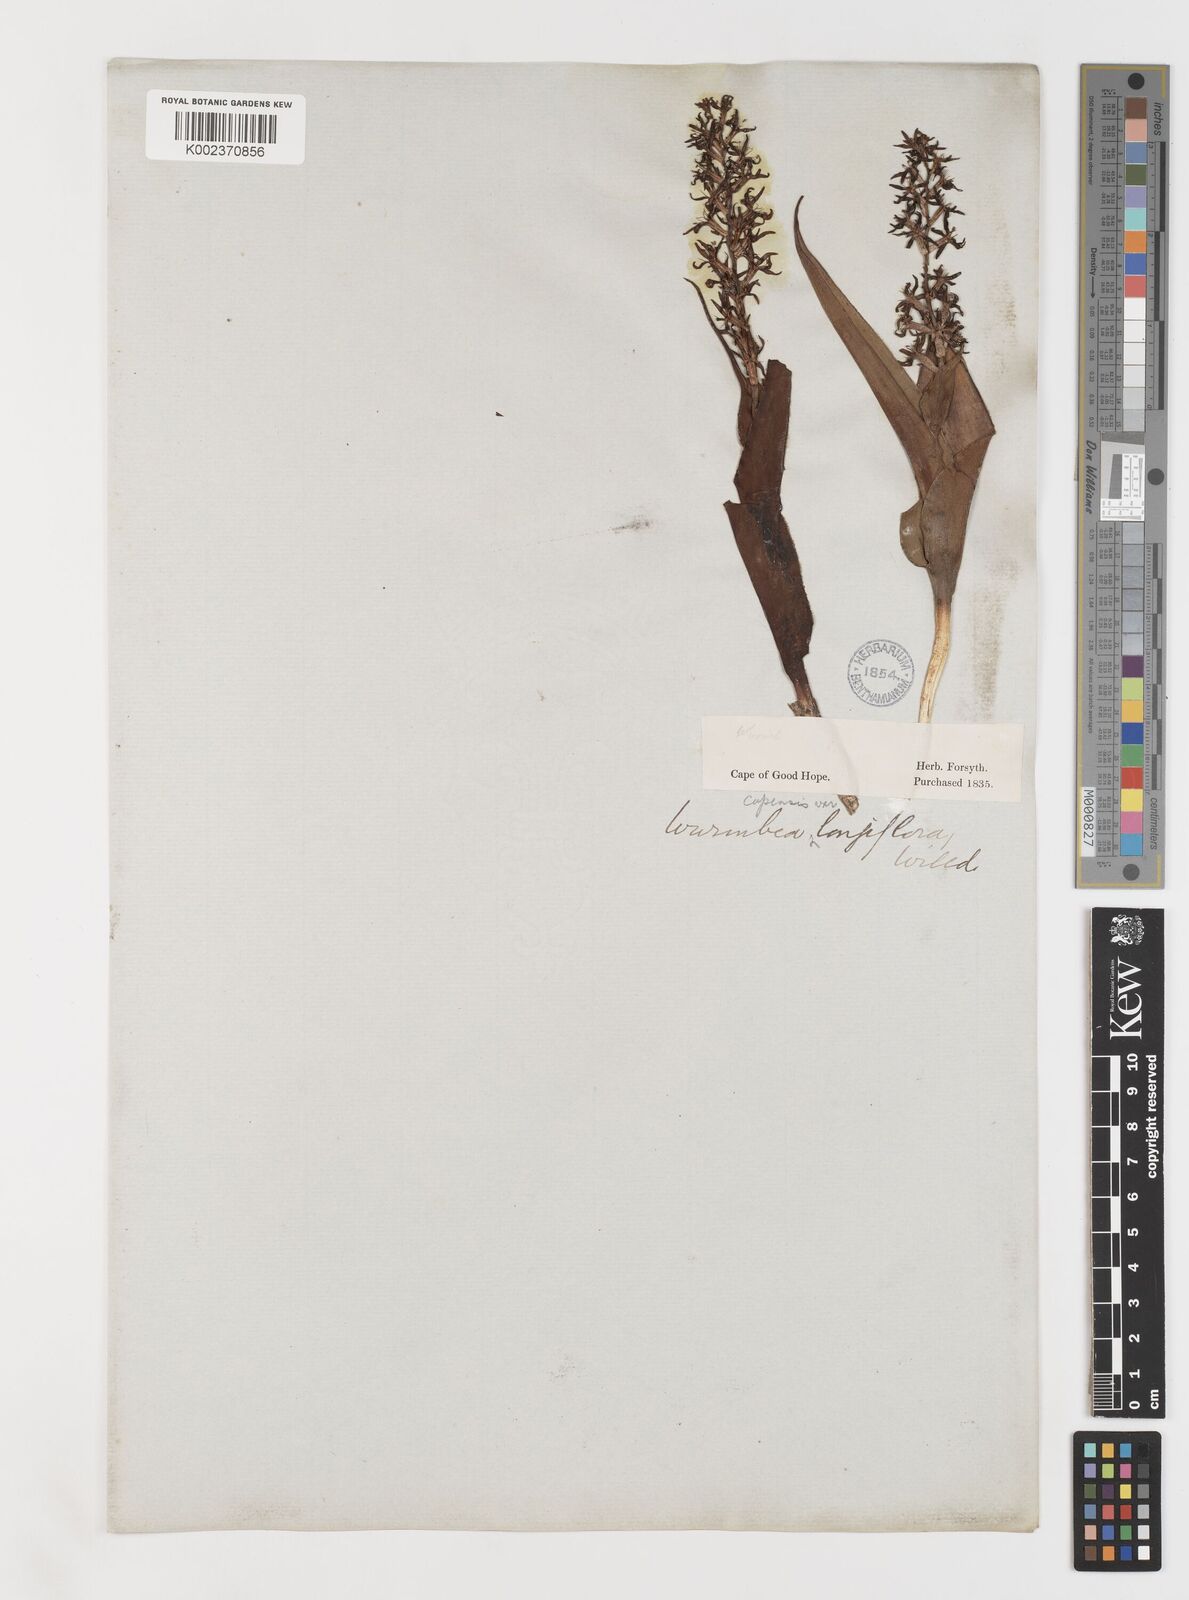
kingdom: Plantae
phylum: Tracheophyta
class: Liliopsida
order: Liliales
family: Colchicaceae
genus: Wurmbea
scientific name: Wurmbea capensis
